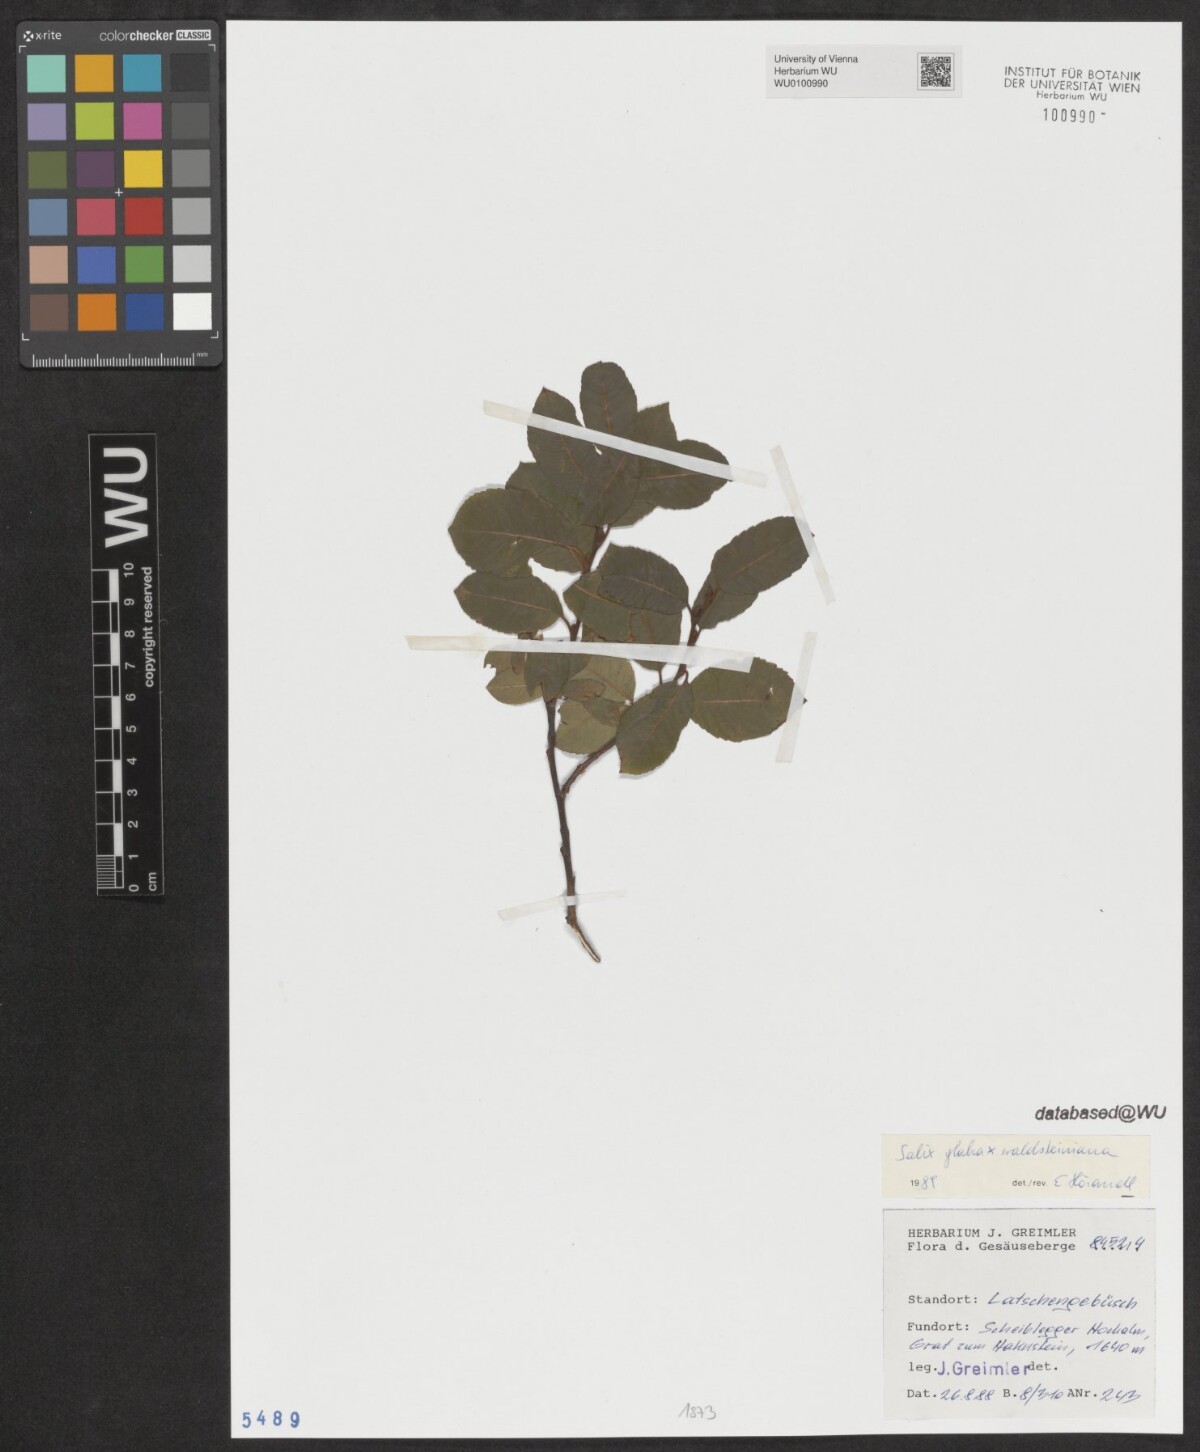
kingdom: Plantae
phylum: Tracheophyta
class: Magnoliopsida
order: Malpighiales
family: Salicaceae
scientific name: Salicaceae
